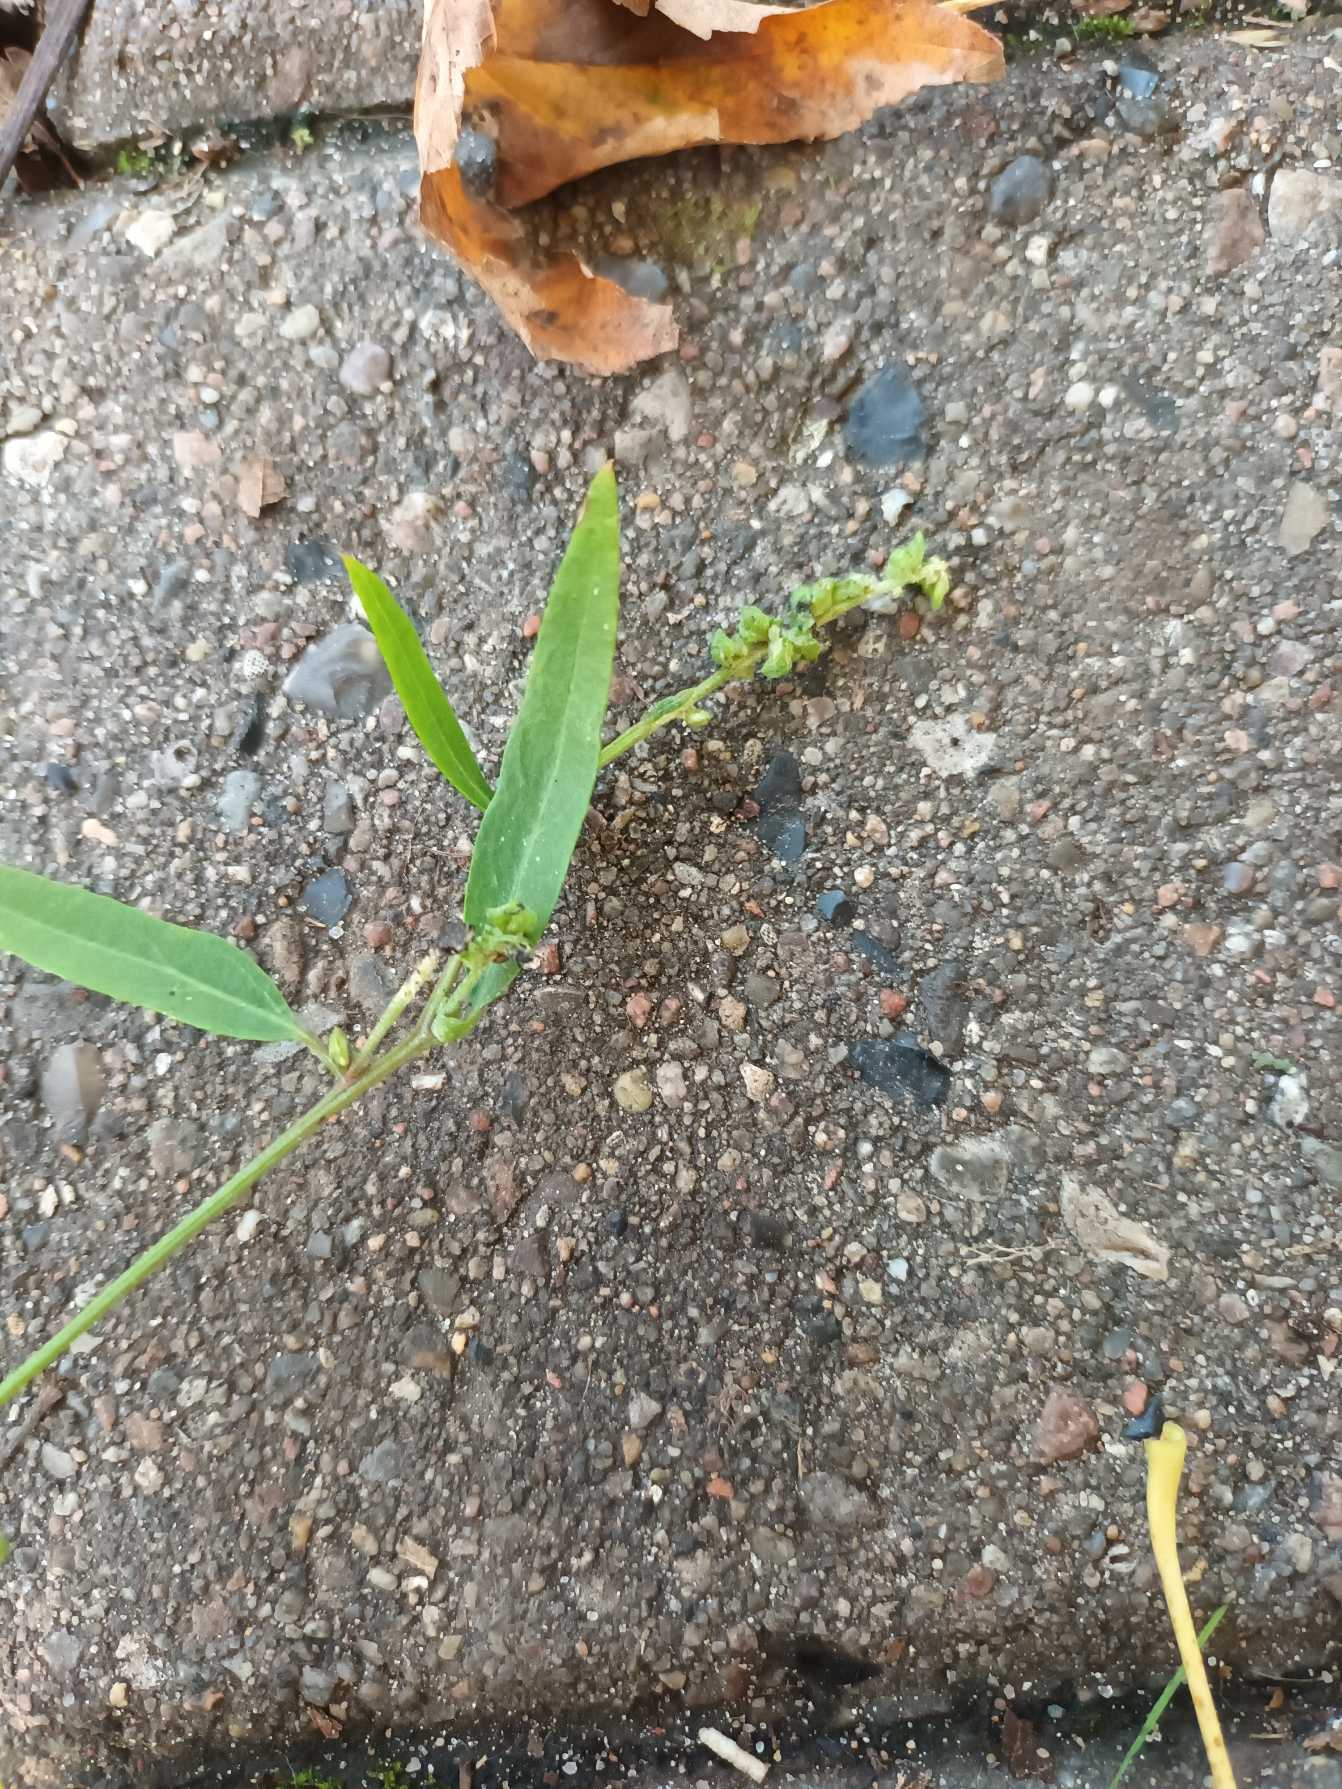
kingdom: Plantae
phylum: Tracheophyta
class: Magnoliopsida
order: Caryophyllales
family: Amaranthaceae
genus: Atriplex
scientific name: Atriplex patula
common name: Svine-mælde
